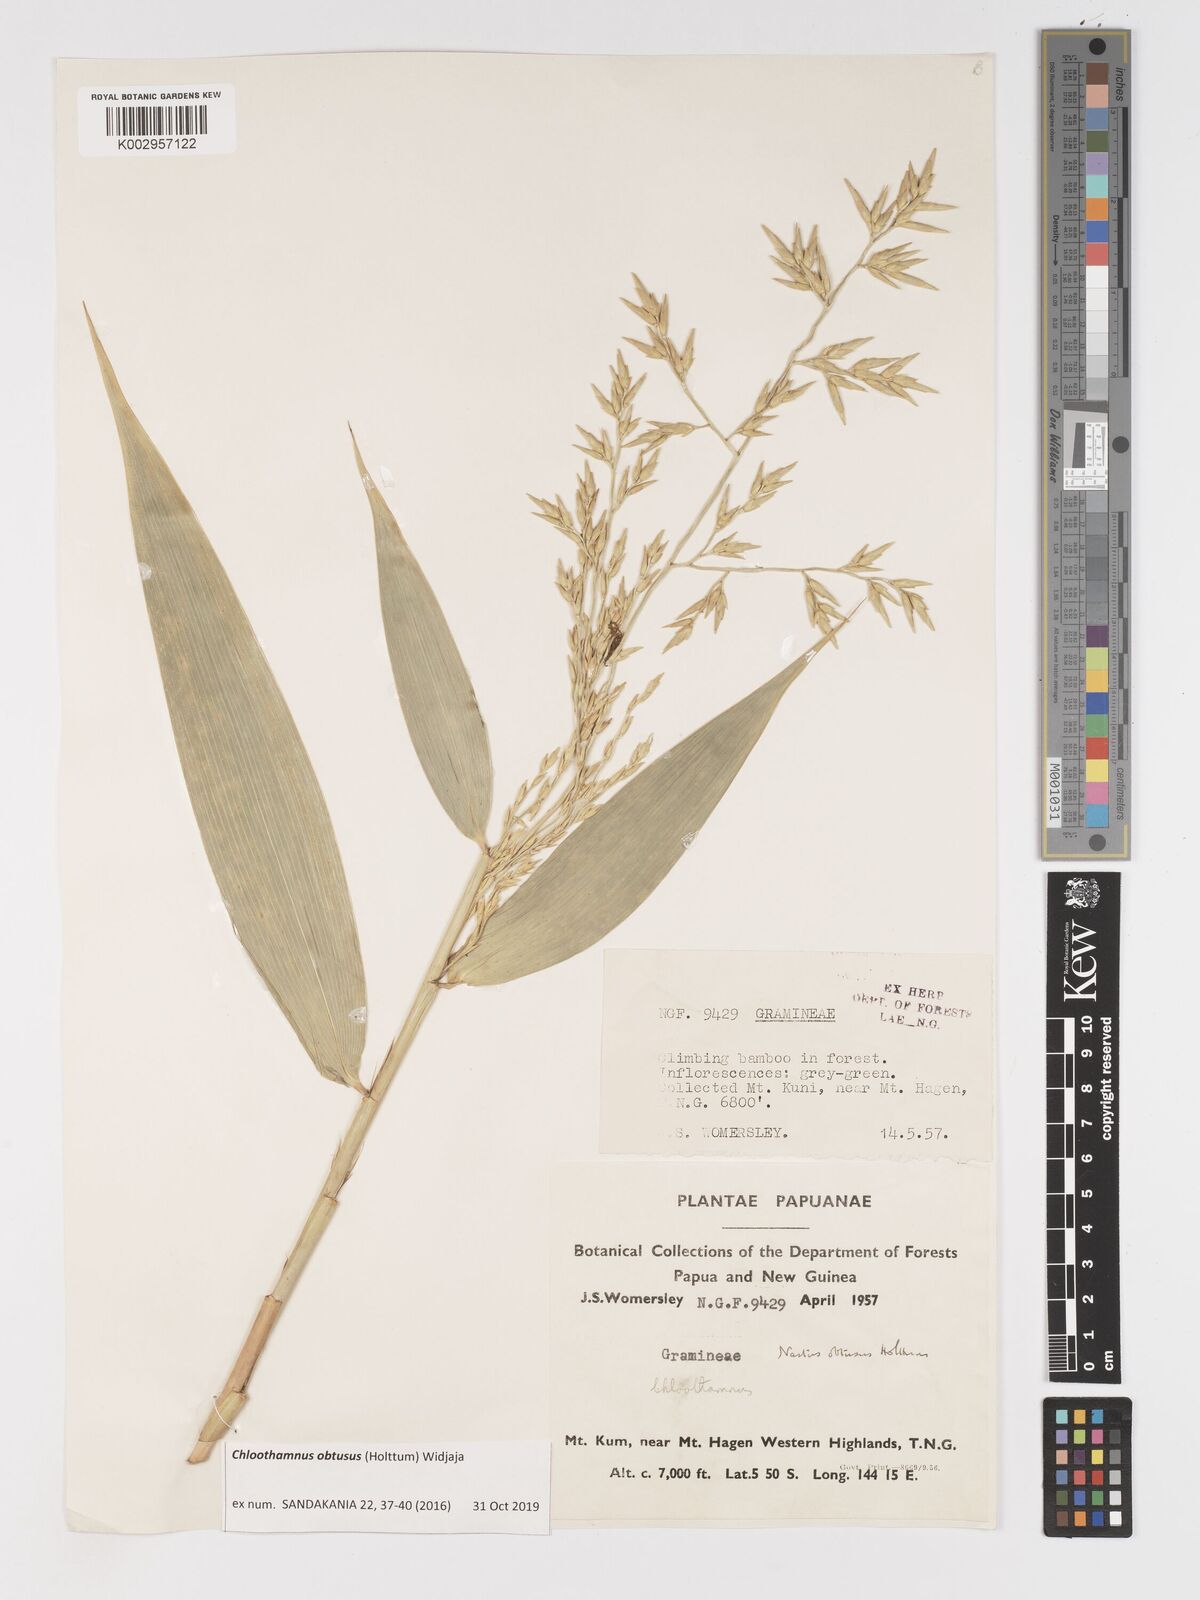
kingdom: Plantae
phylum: Tracheophyta
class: Liliopsida
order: Poales
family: Poaceae
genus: Chloothamnus
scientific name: Chloothamnus obtusus
